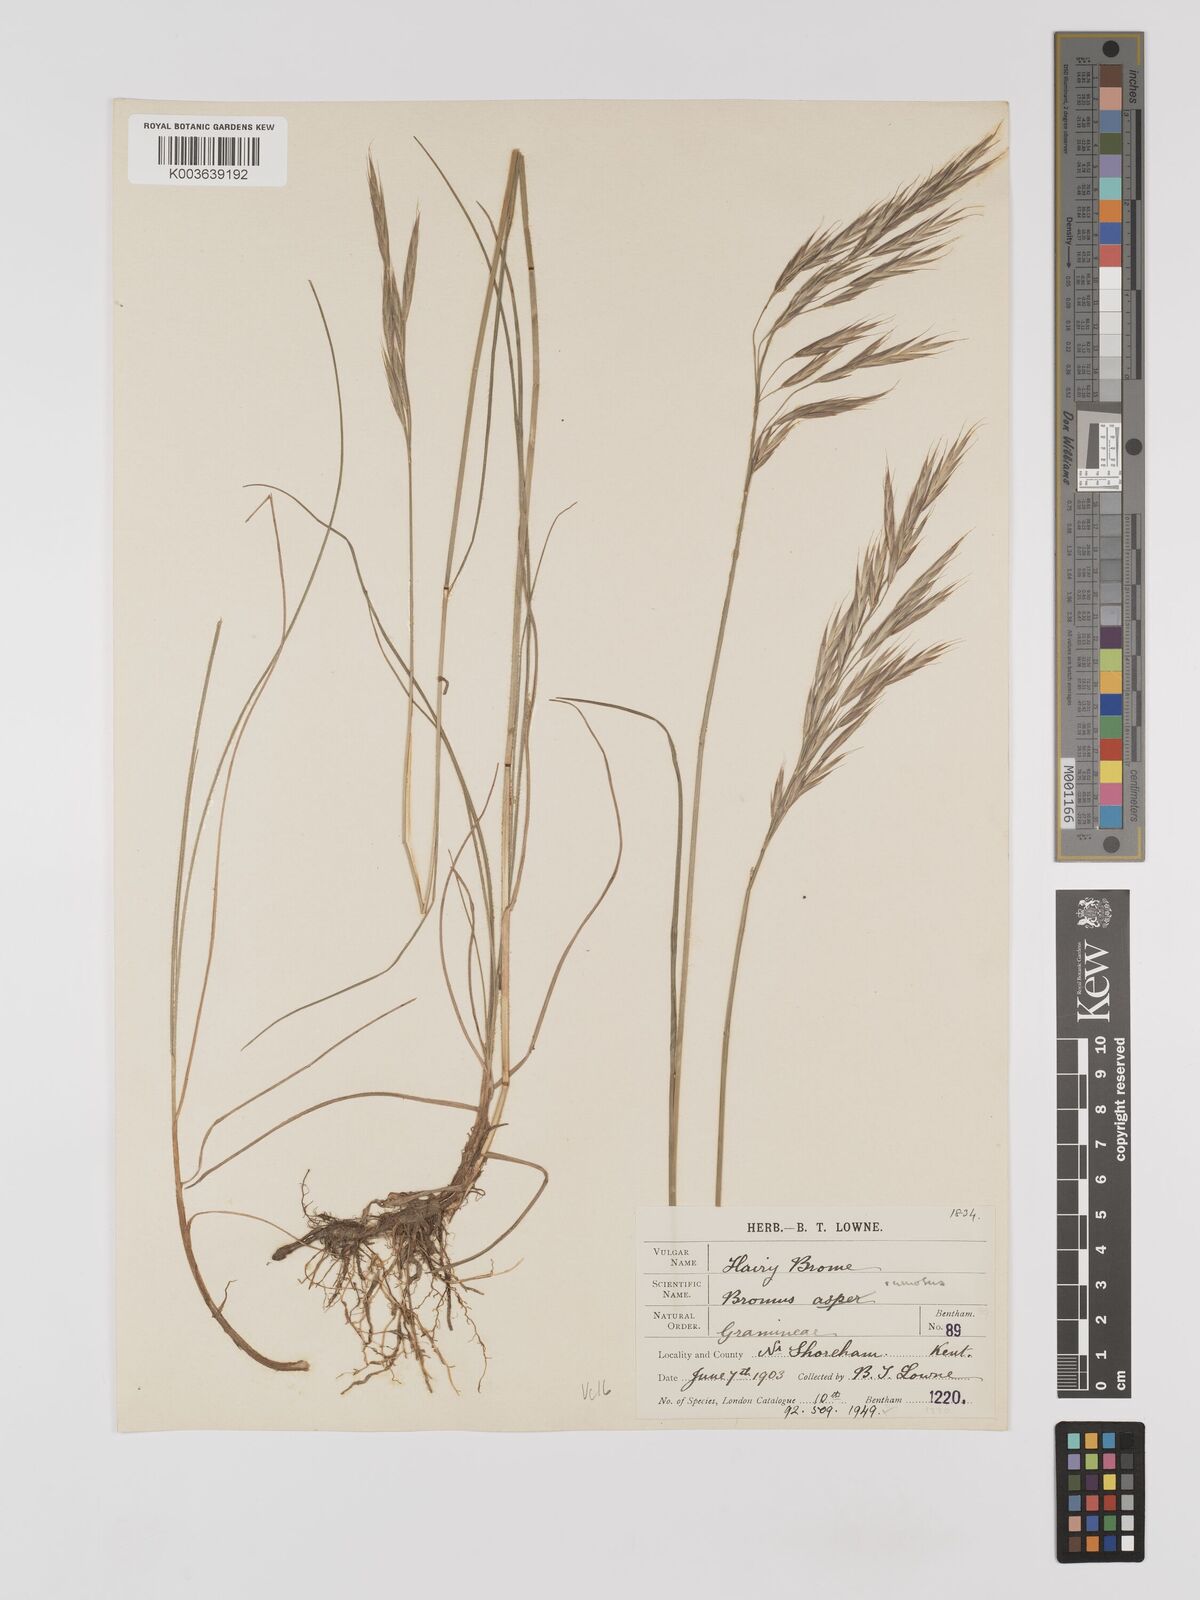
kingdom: Plantae
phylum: Tracheophyta
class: Liliopsida
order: Poales
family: Poaceae
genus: Bromus
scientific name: Bromus erectus
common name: Erect brome
